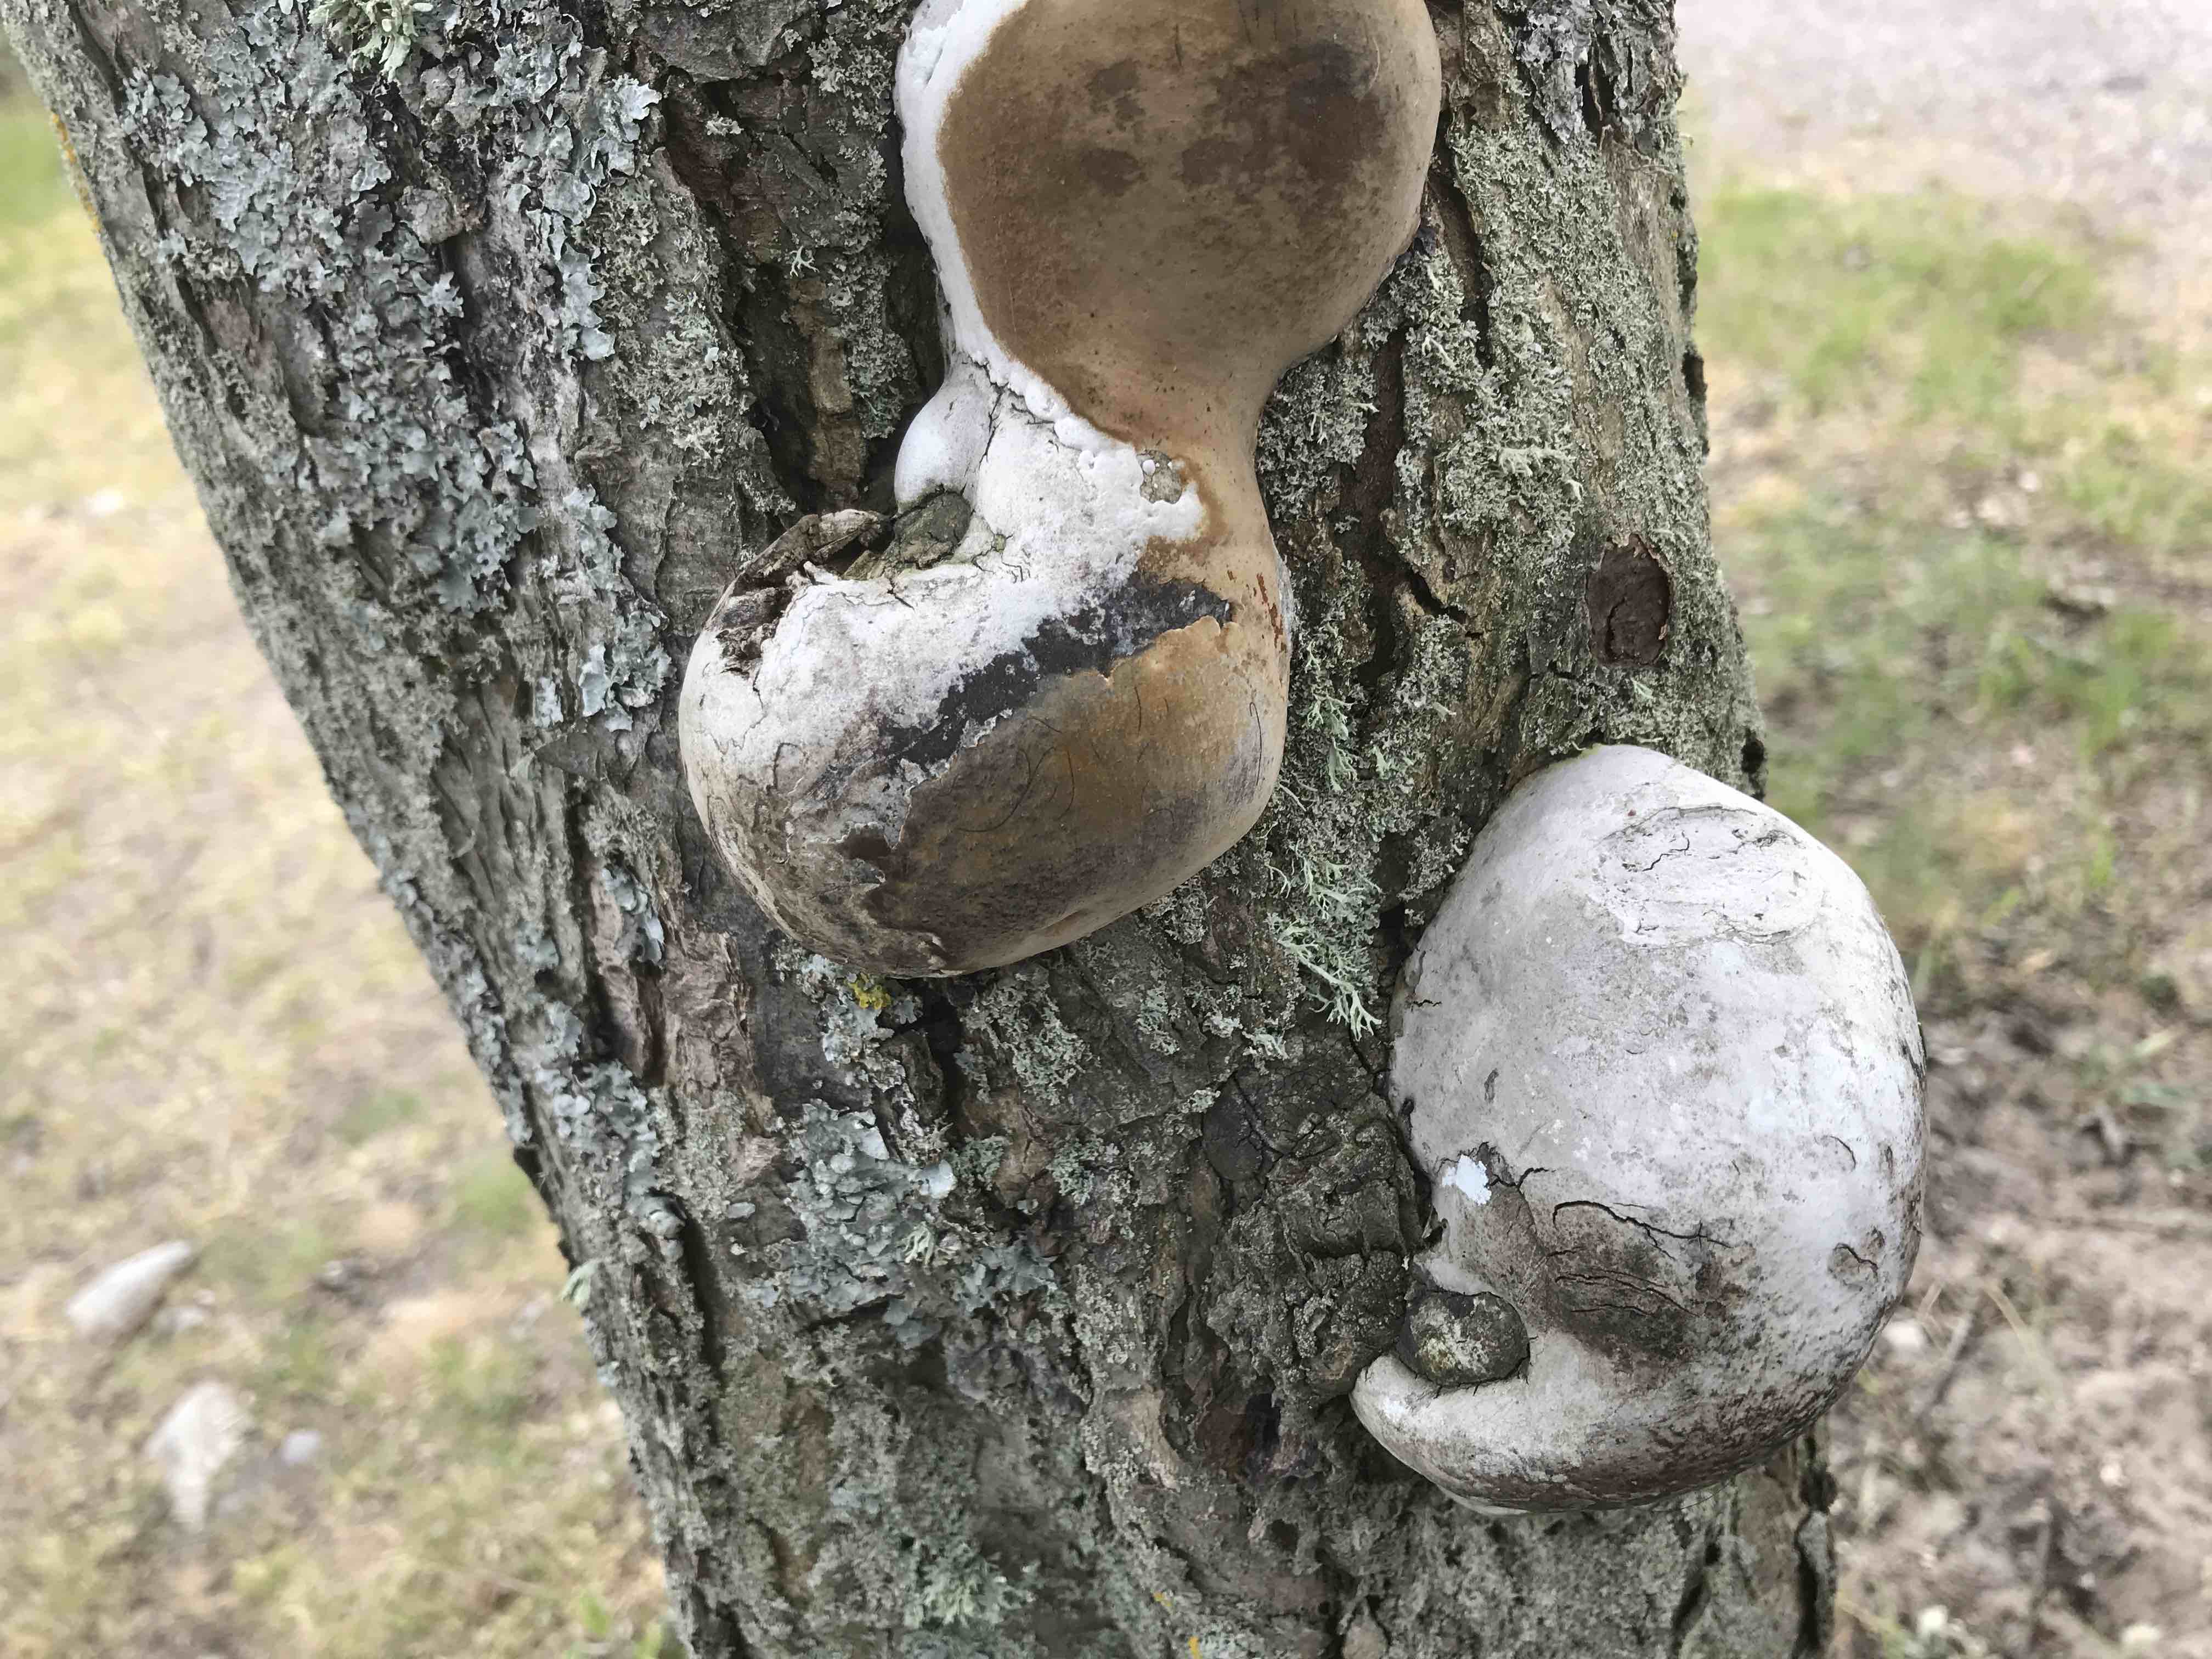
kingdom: Fungi
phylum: Basidiomycota
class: Agaricomycetes
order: Polyporales
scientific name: Polyporales
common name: poresvampordenen
